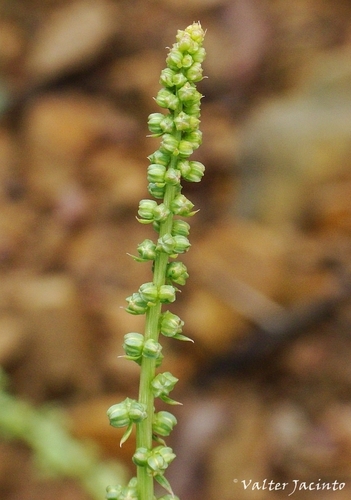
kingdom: Plantae
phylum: Tracheophyta
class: Magnoliopsida
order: Brassicales
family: Resedaceae
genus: Reseda
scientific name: Reseda luteola
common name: Weld
